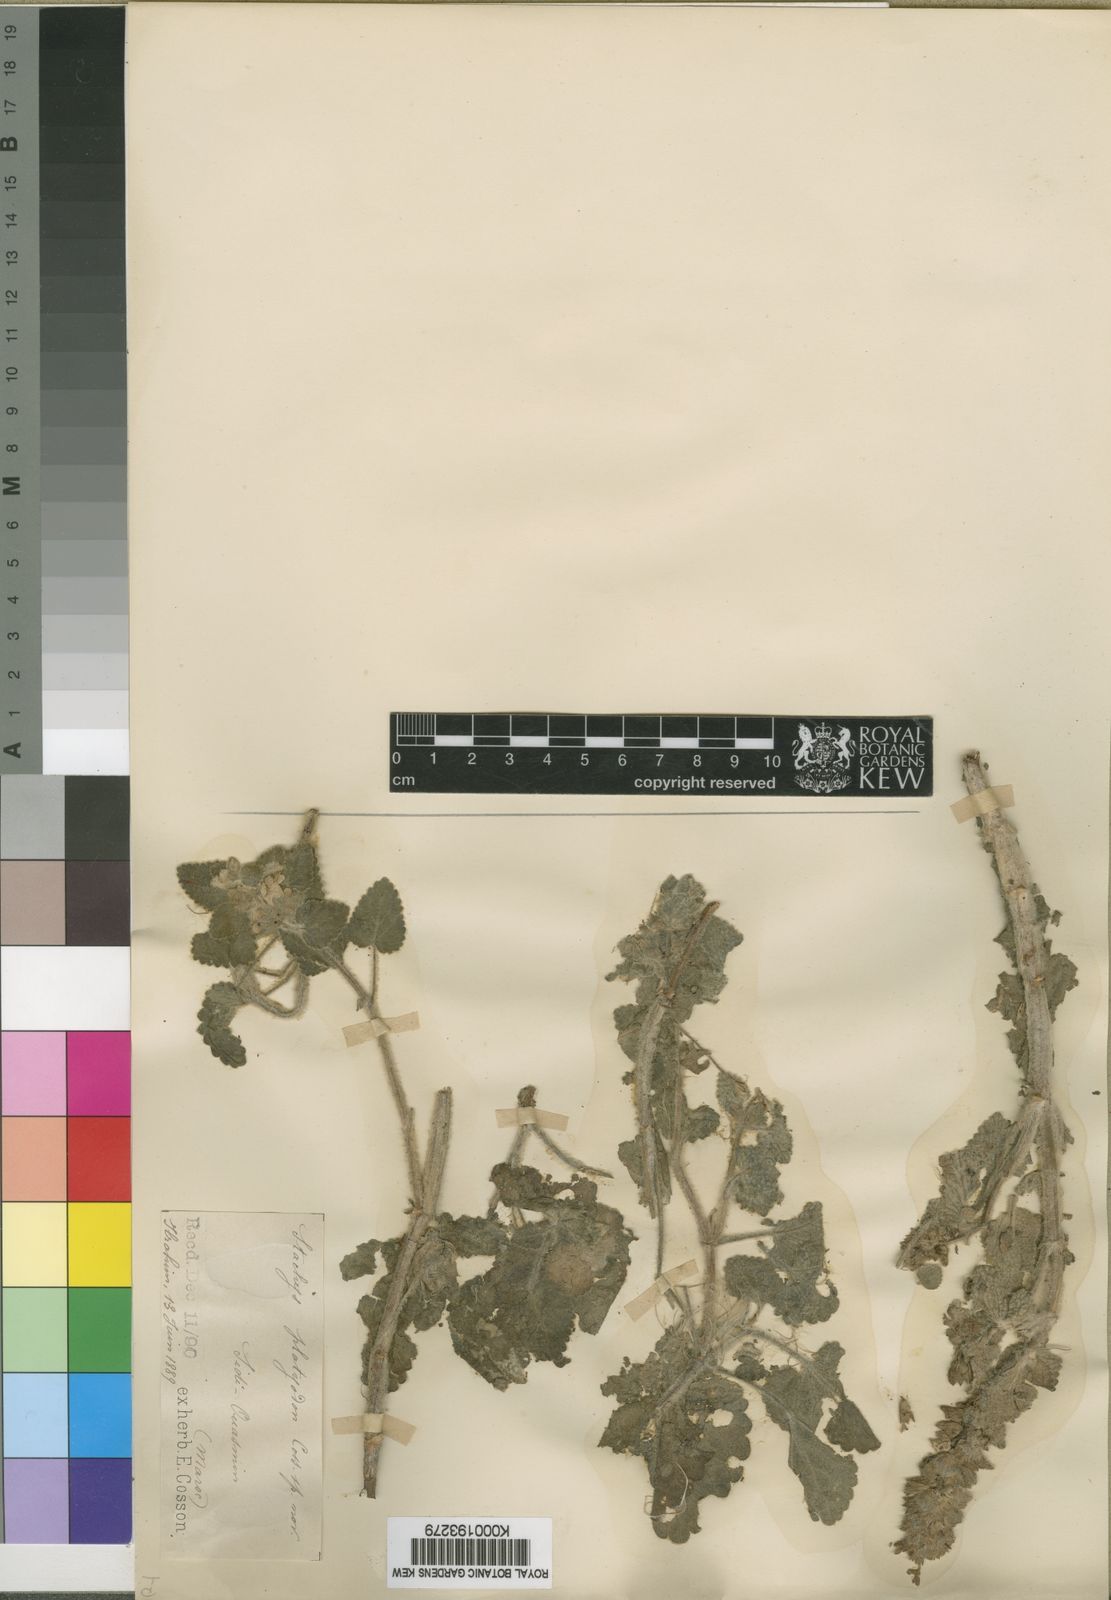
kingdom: Plantae
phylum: Tracheophyta
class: Magnoliopsida
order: Lamiales
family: Lamiaceae
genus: Stachys
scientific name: Stachys
